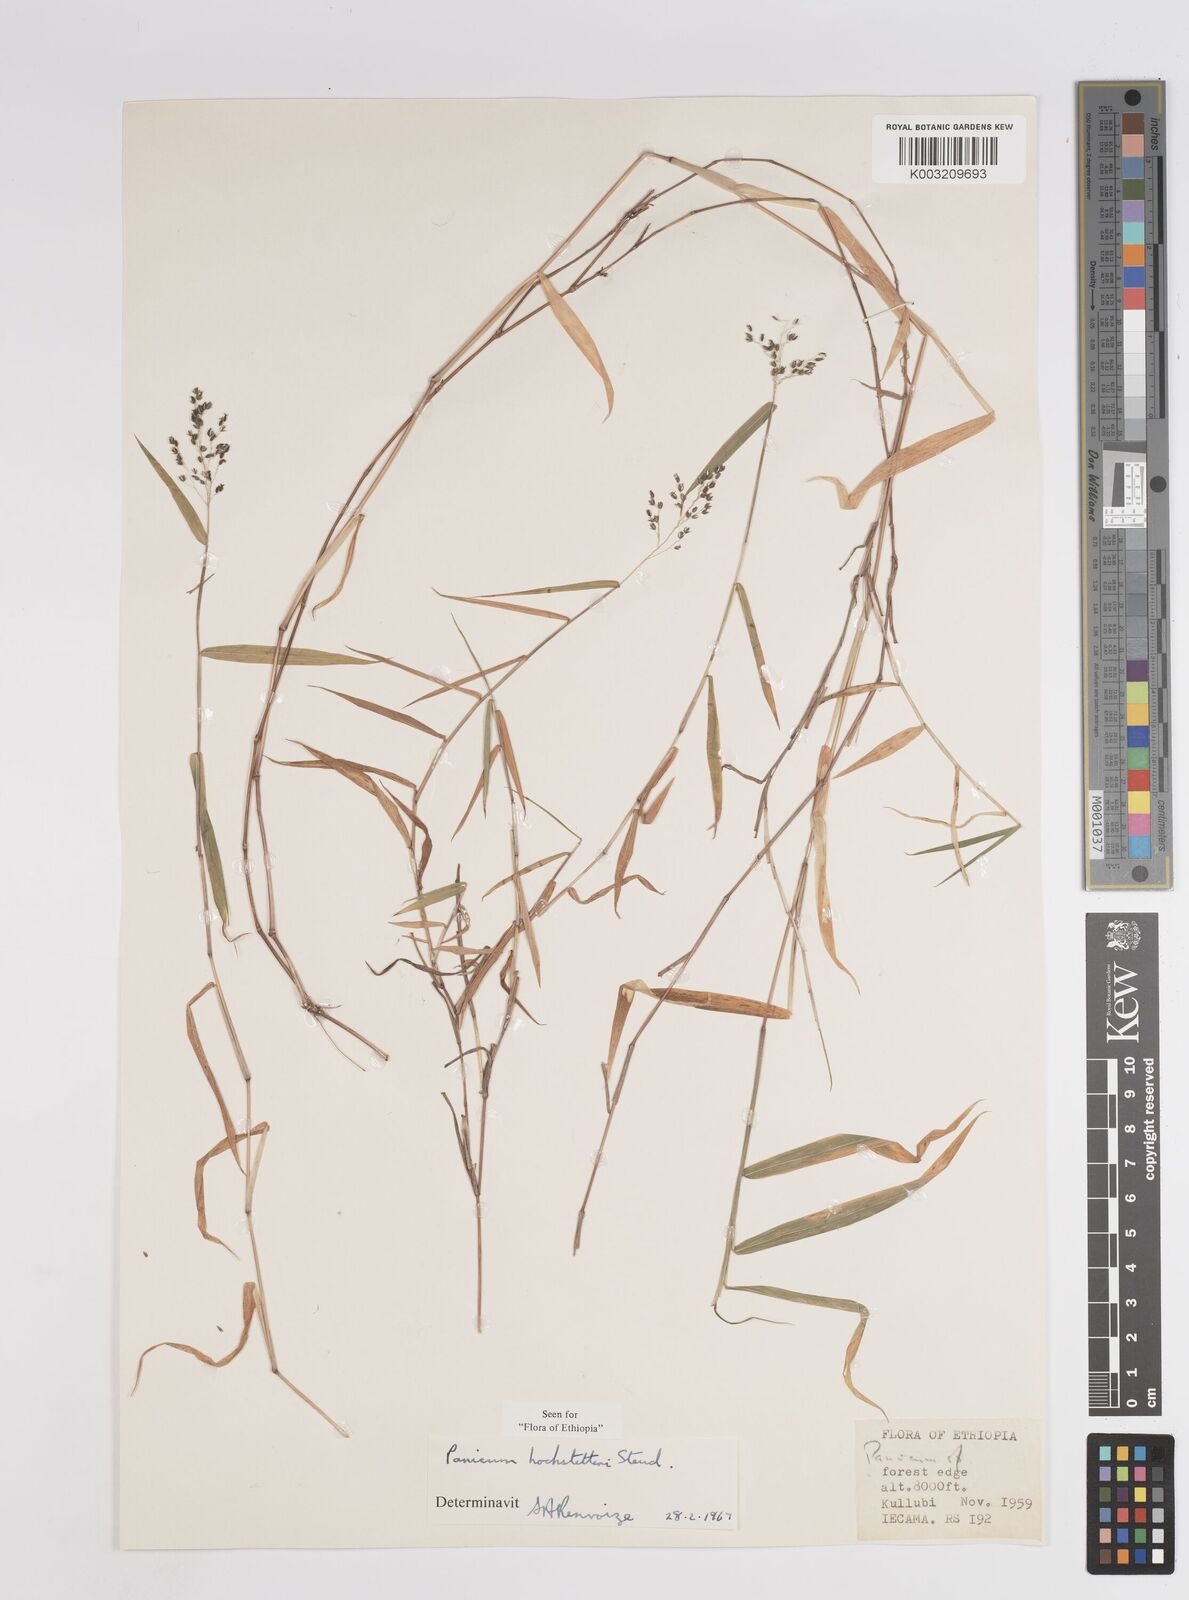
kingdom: Plantae
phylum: Tracheophyta
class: Liliopsida
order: Poales
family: Poaceae
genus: Panicum
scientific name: Panicum hochstetteri
